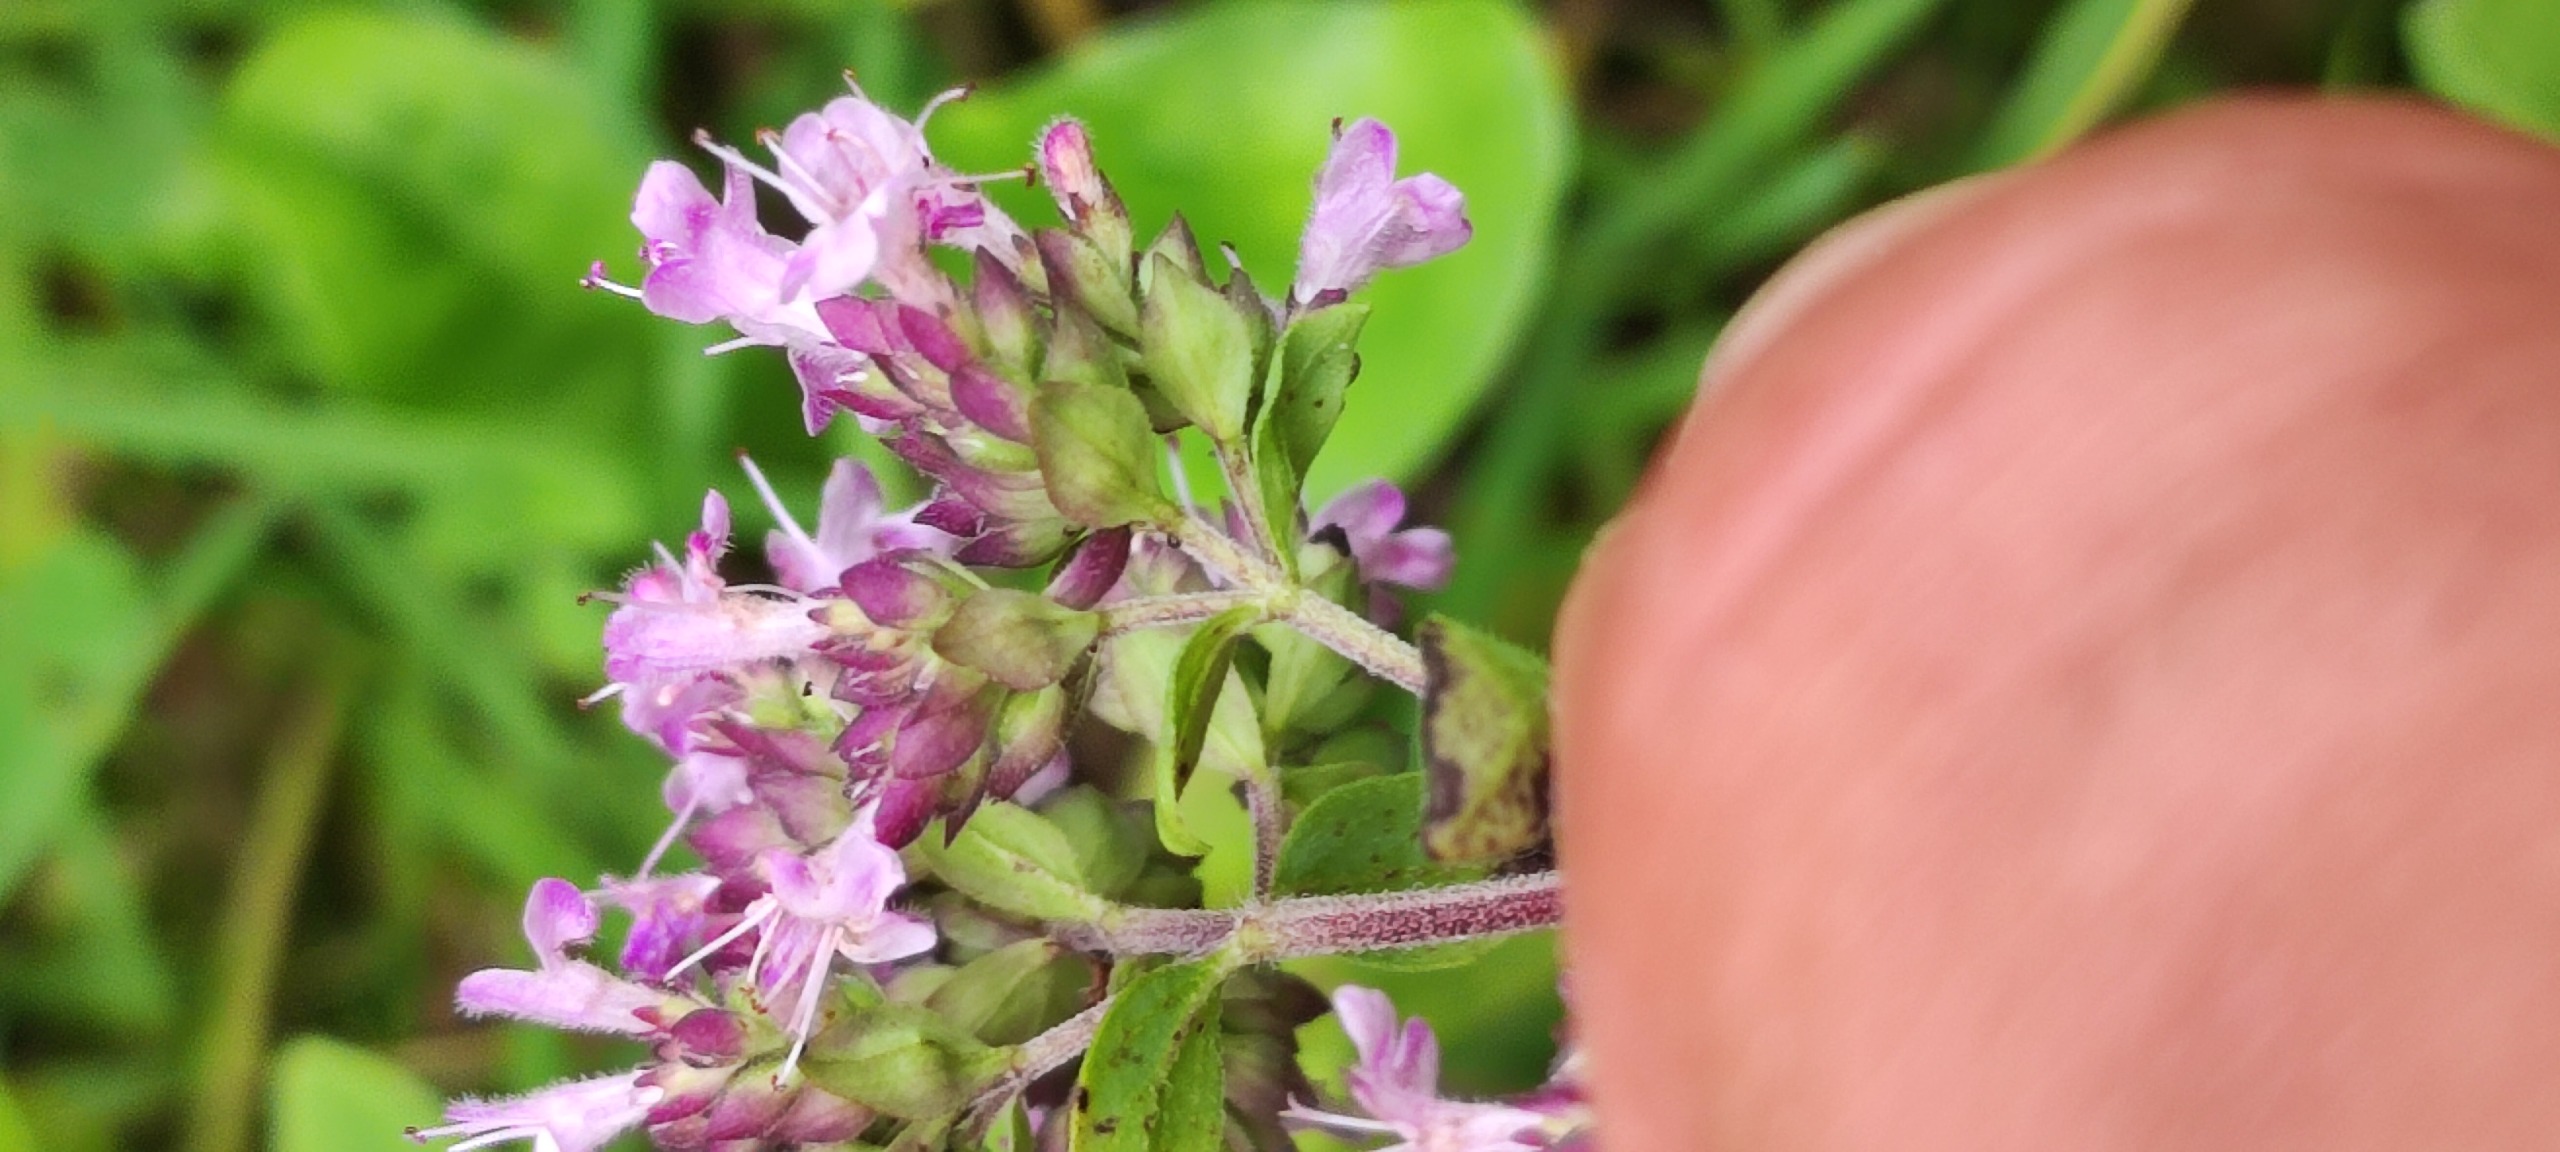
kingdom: Plantae
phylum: Tracheophyta
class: Magnoliopsida
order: Lamiales
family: Lamiaceae
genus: Origanum
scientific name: Origanum vulgare
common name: Merian
